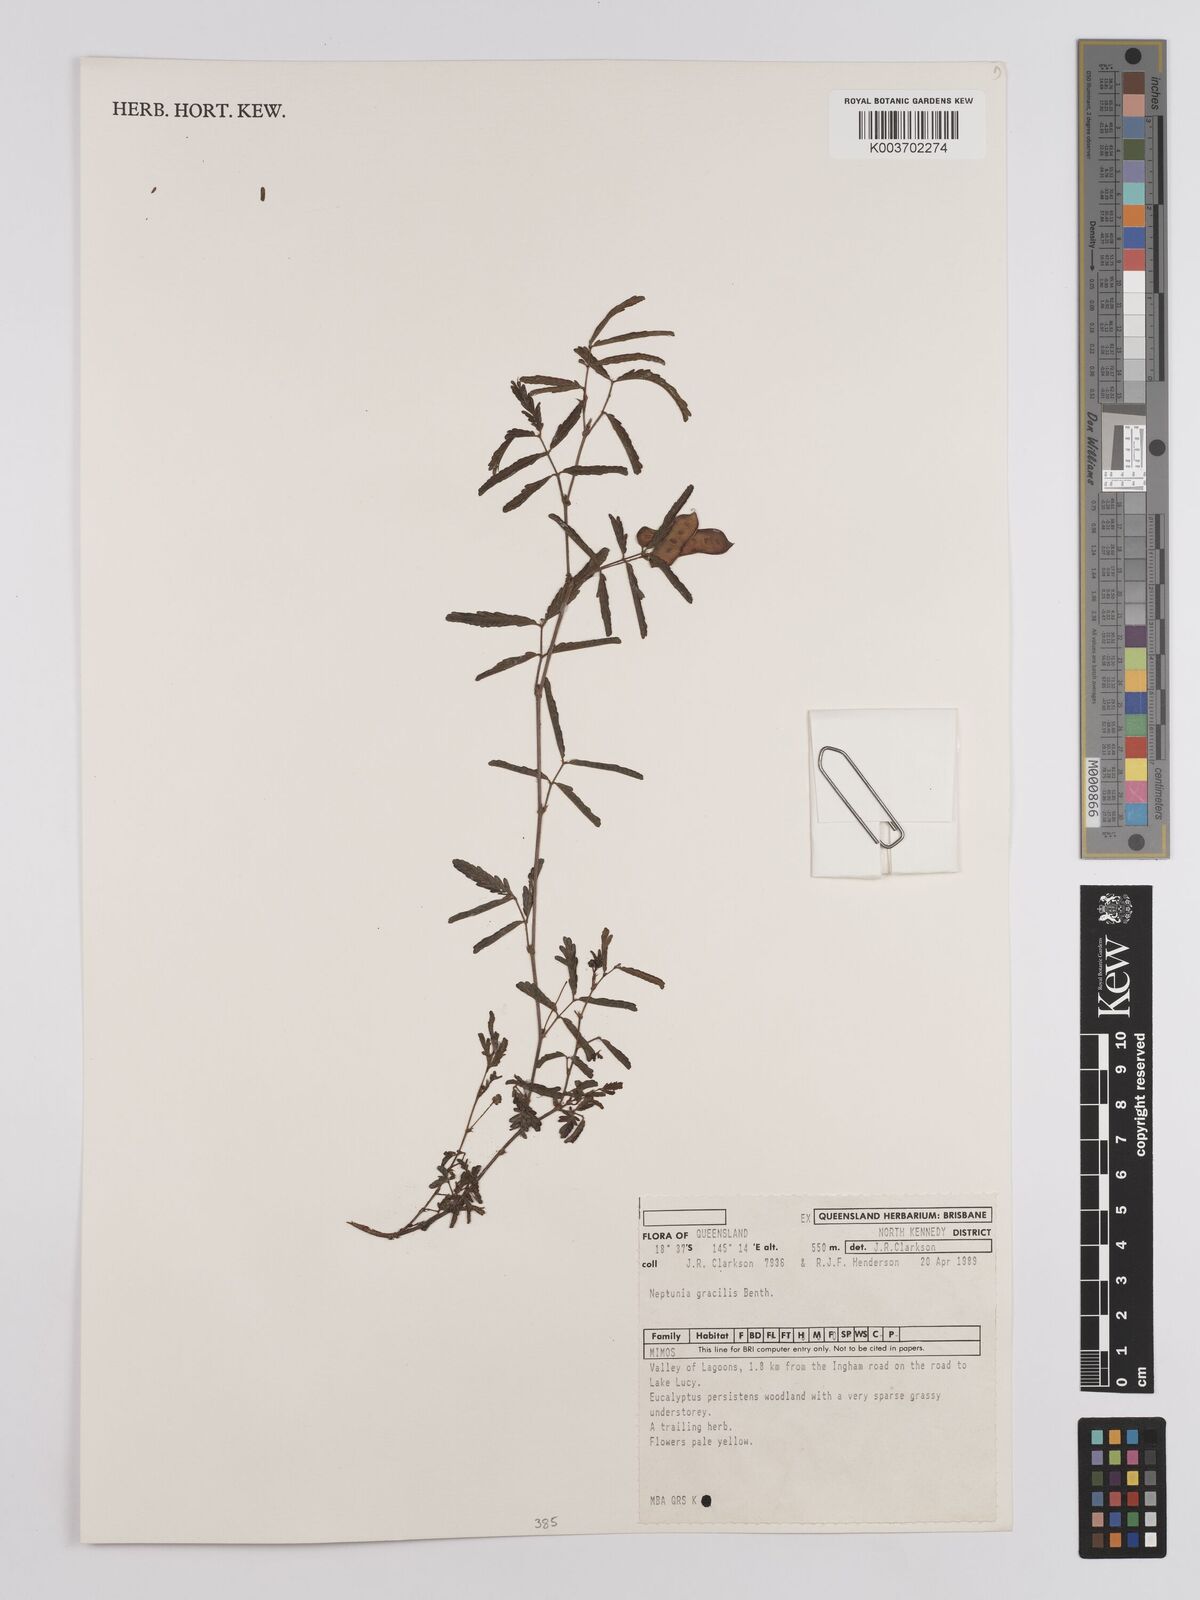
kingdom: Plantae
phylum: Tracheophyta
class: Magnoliopsida
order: Fabales
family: Fabaceae
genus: Neptunia
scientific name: Neptunia gracilis
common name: Sensitive-plant
